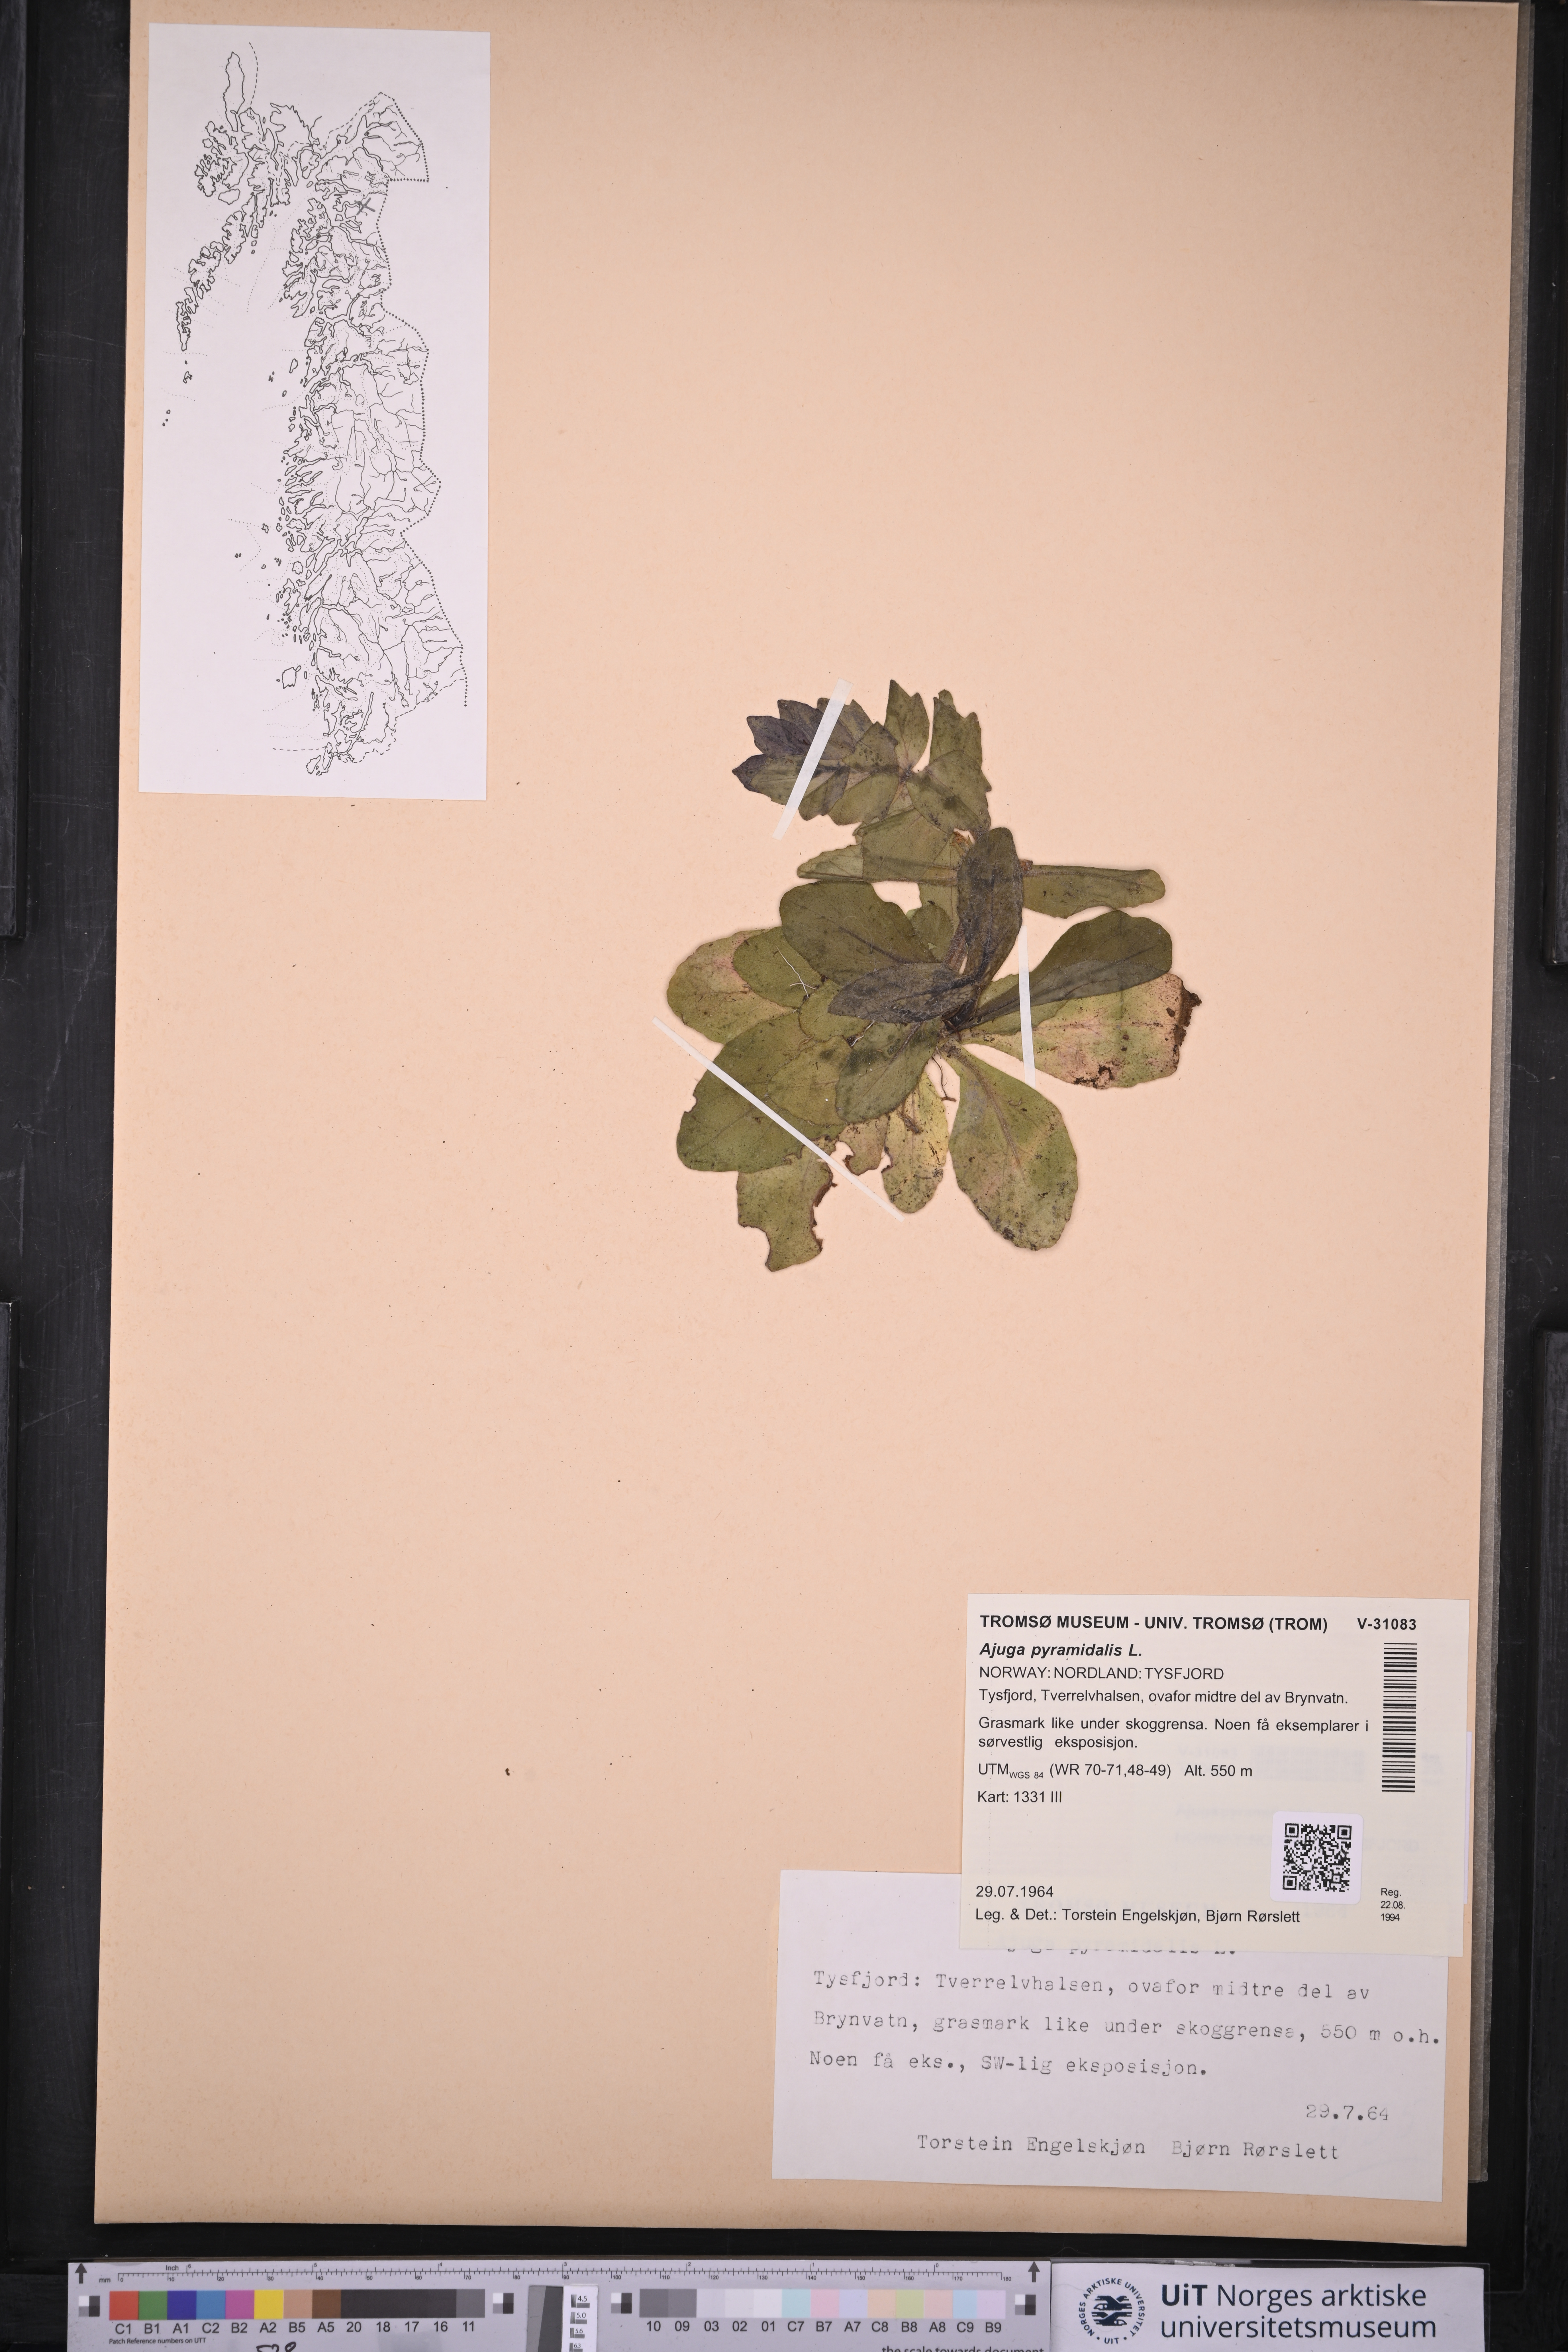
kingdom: Plantae
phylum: Tracheophyta
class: Magnoliopsida
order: Lamiales
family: Lamiaceae
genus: Ajuga
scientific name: Ajuga pyramidalis
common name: Pyramid bugle
